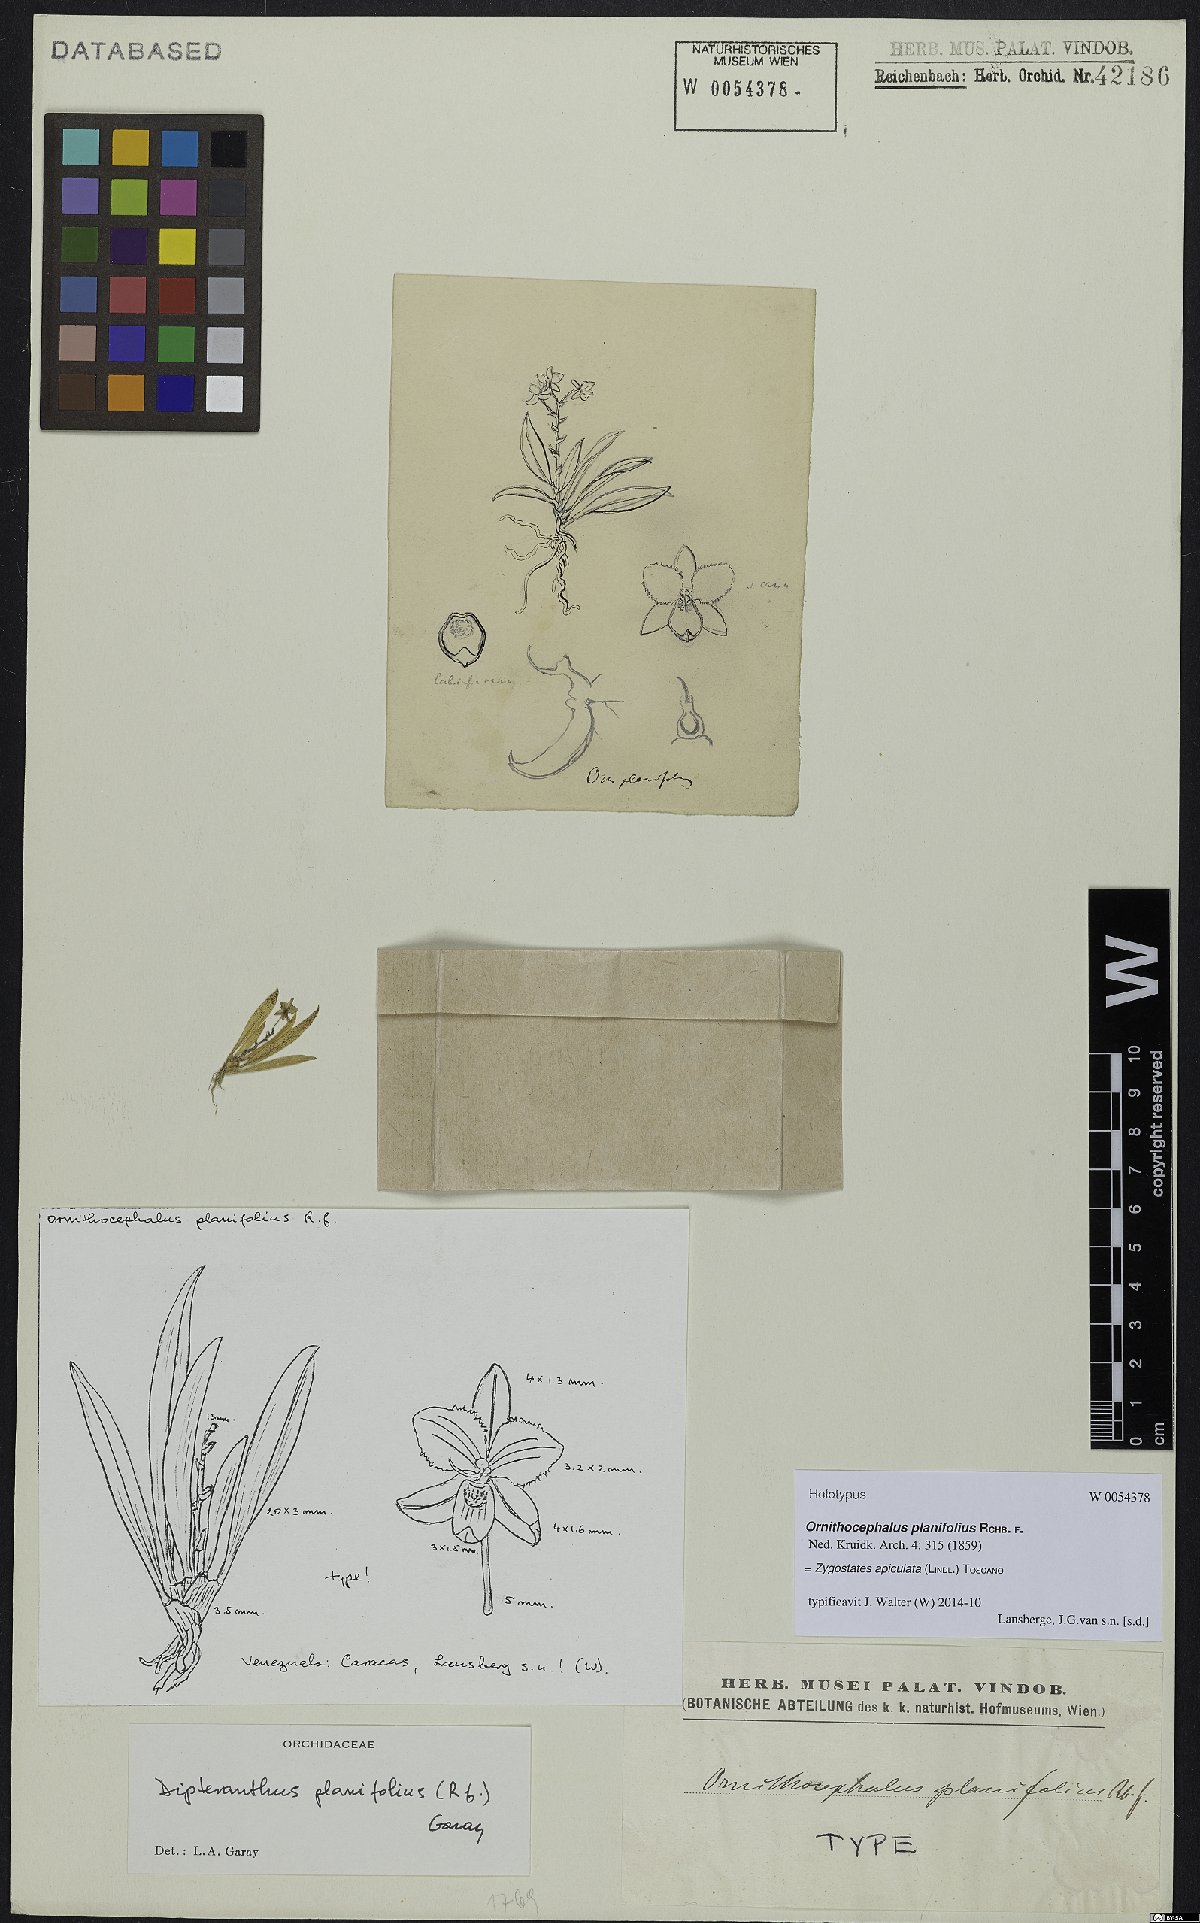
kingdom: Plantae
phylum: Tracheophyta
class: Liliopsida
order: Asparagales
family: Orchidaceae
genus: Zygostates
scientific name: Zygostates apiculata
